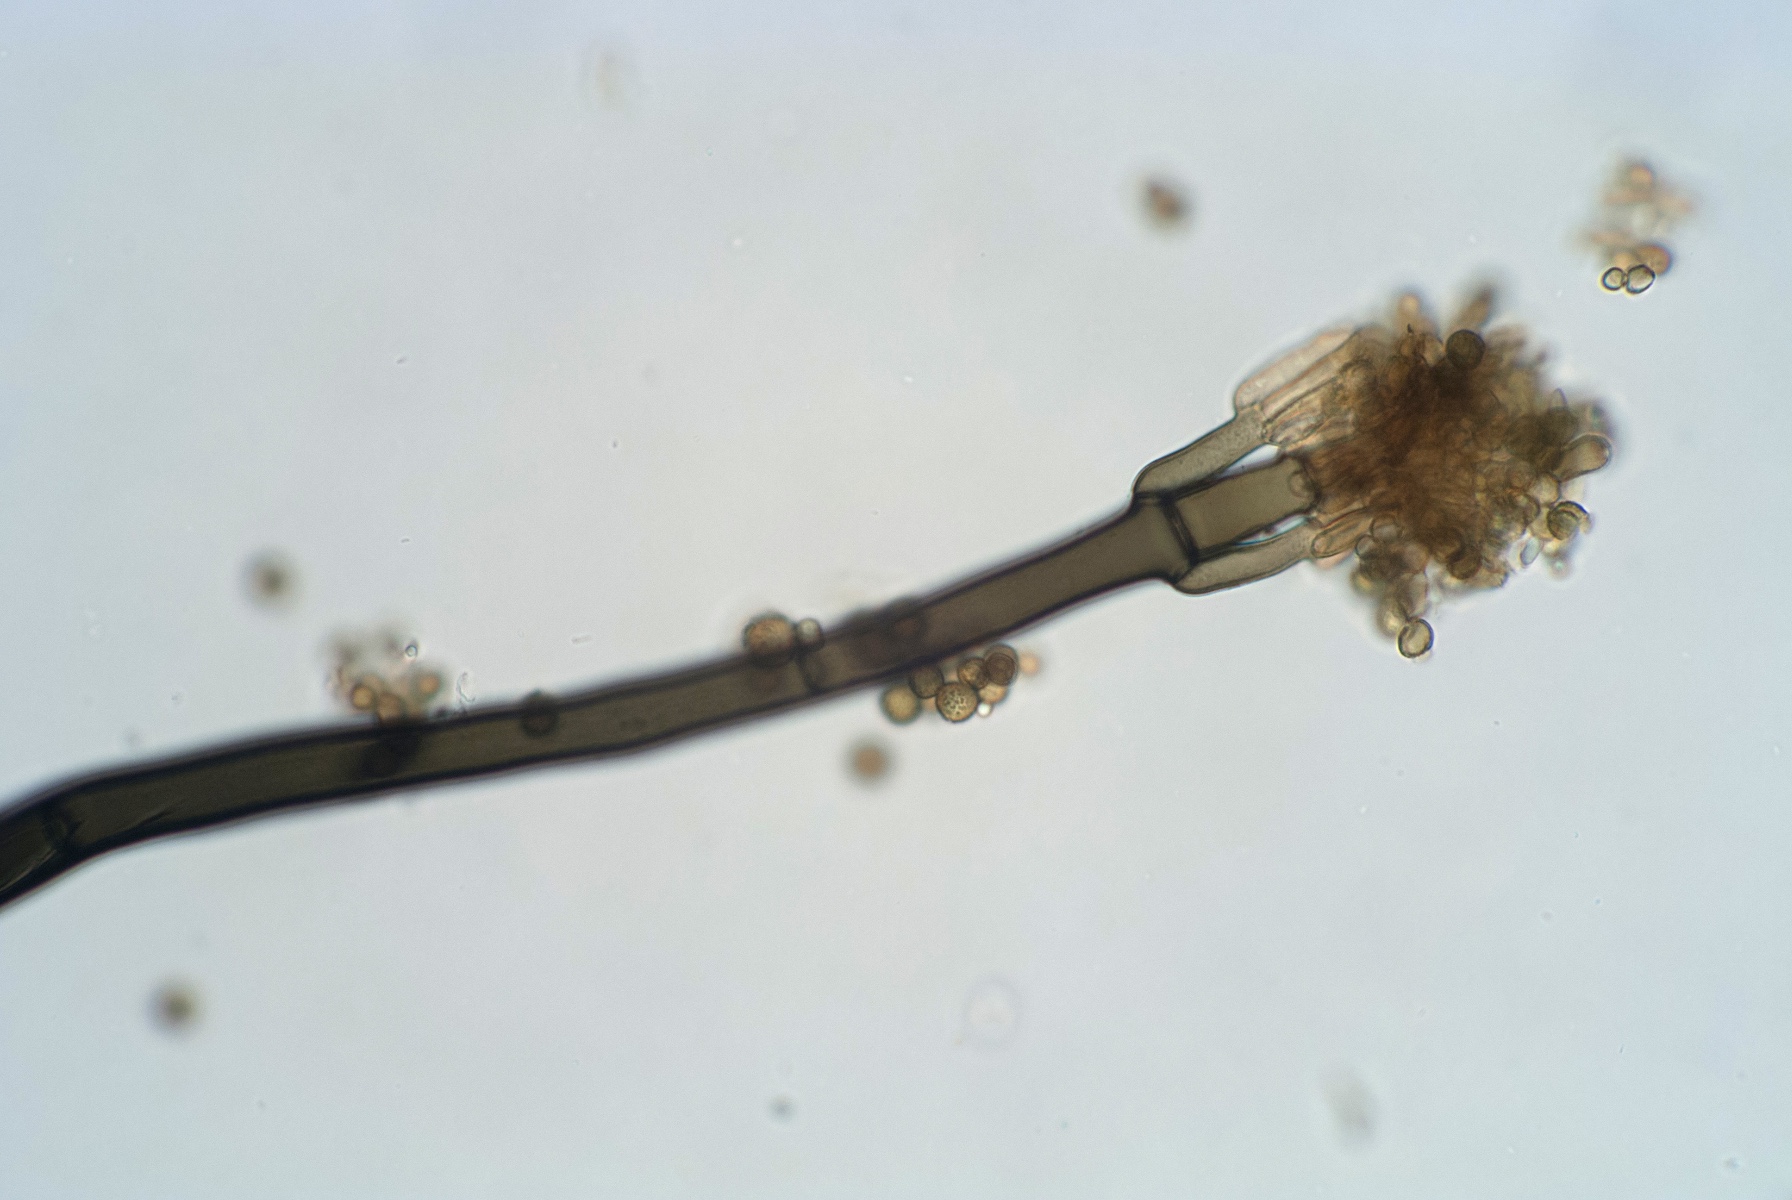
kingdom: Fungi
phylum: Ascomycota
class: Dothideomycetes
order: Pleosporales
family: Periconiaceae
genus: Periconia
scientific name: Periconia digitata
